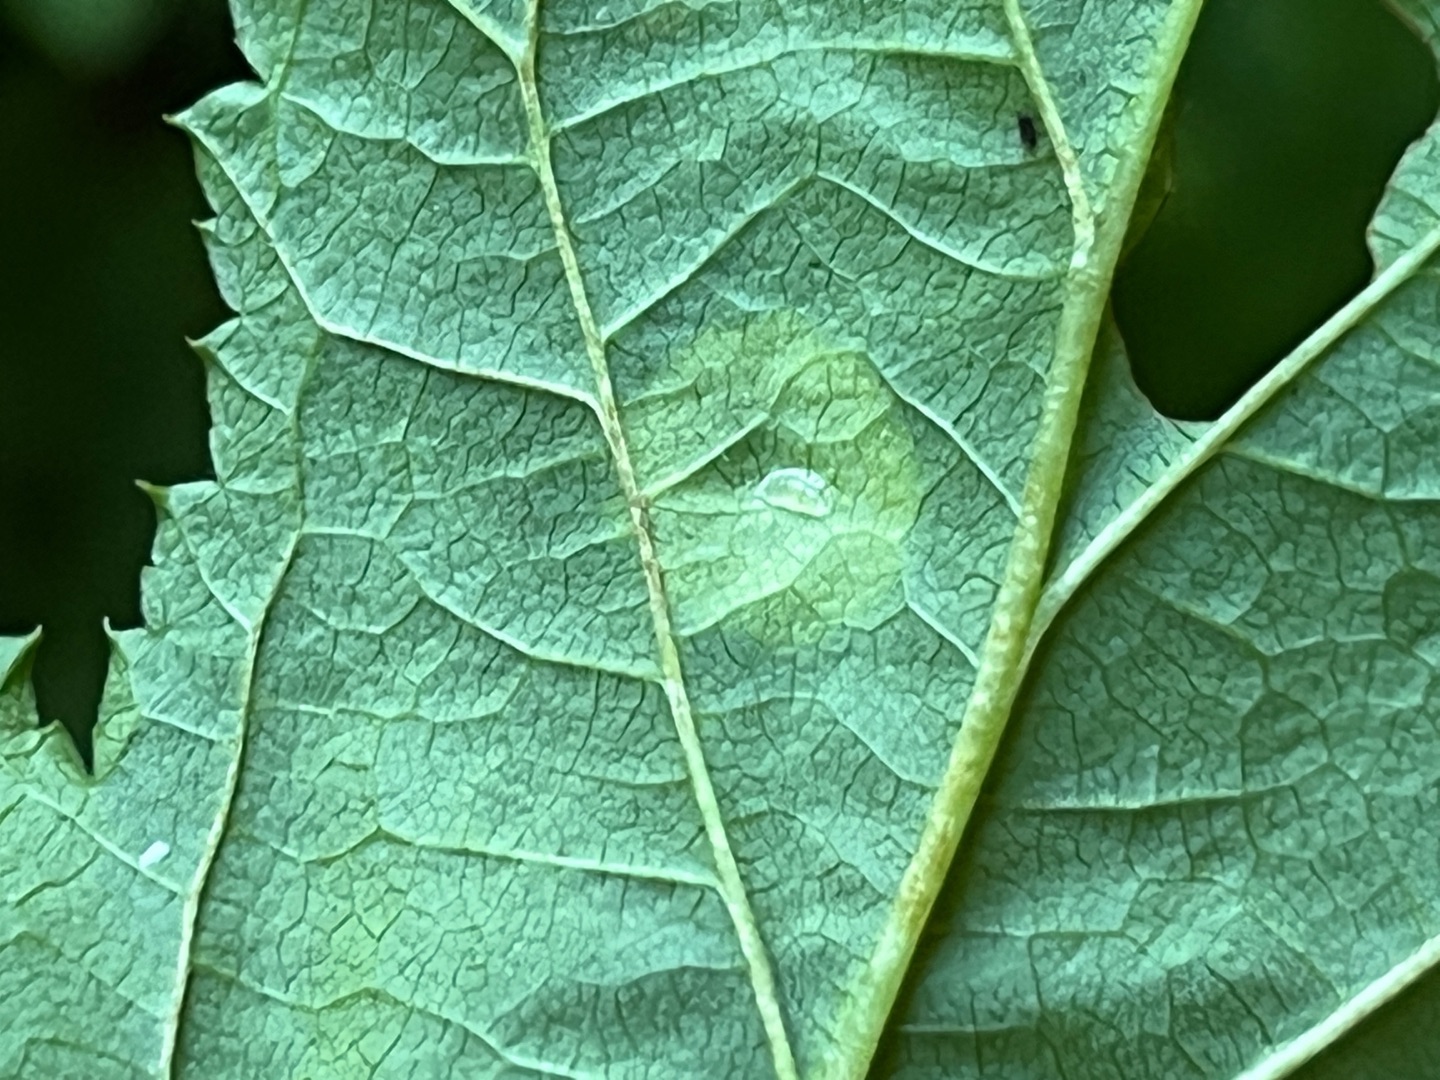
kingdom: Animalia
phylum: Arthropoda
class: Insecta
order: Diptera
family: Cecidomyiidae
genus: Dasineura
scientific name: Dasineura pustulans
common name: Mjødurtblistgalmyg
